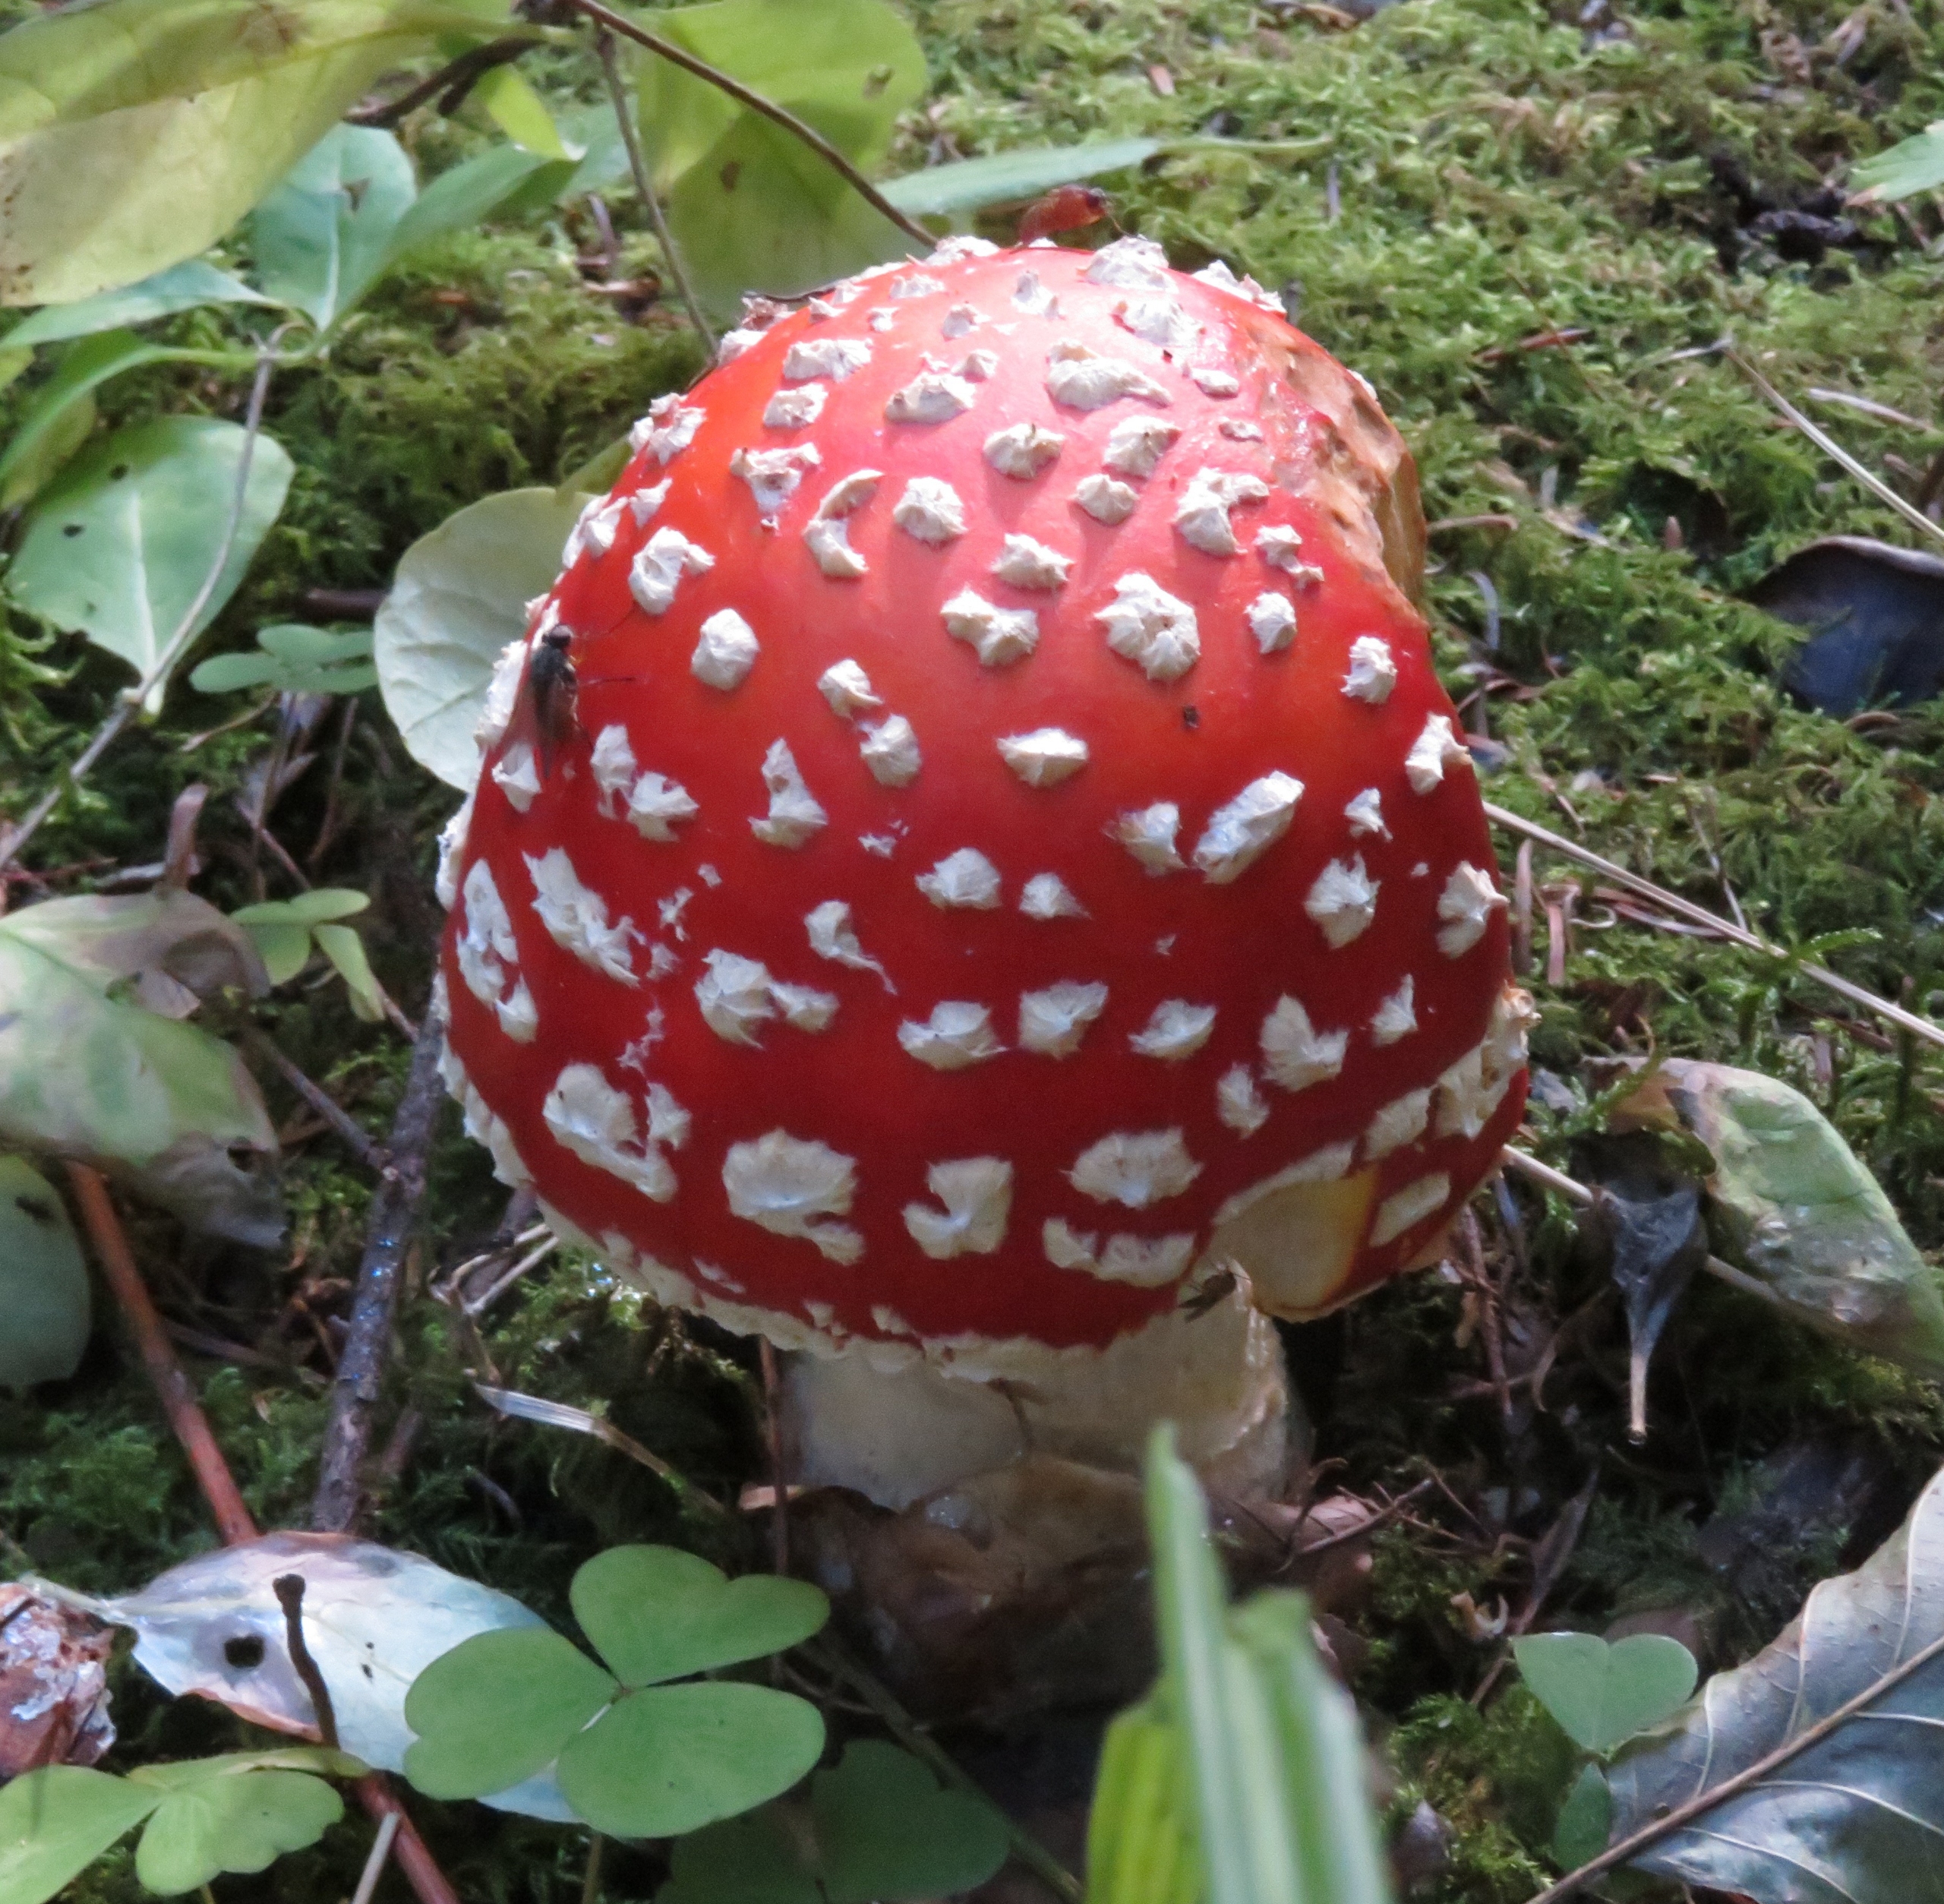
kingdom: Fungi
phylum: Basidiomycota
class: Agaricomycetes
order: Agaricales
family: Amanitaceae
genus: Amanita
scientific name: Amanita muscaria
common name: Rød fluesvamp
